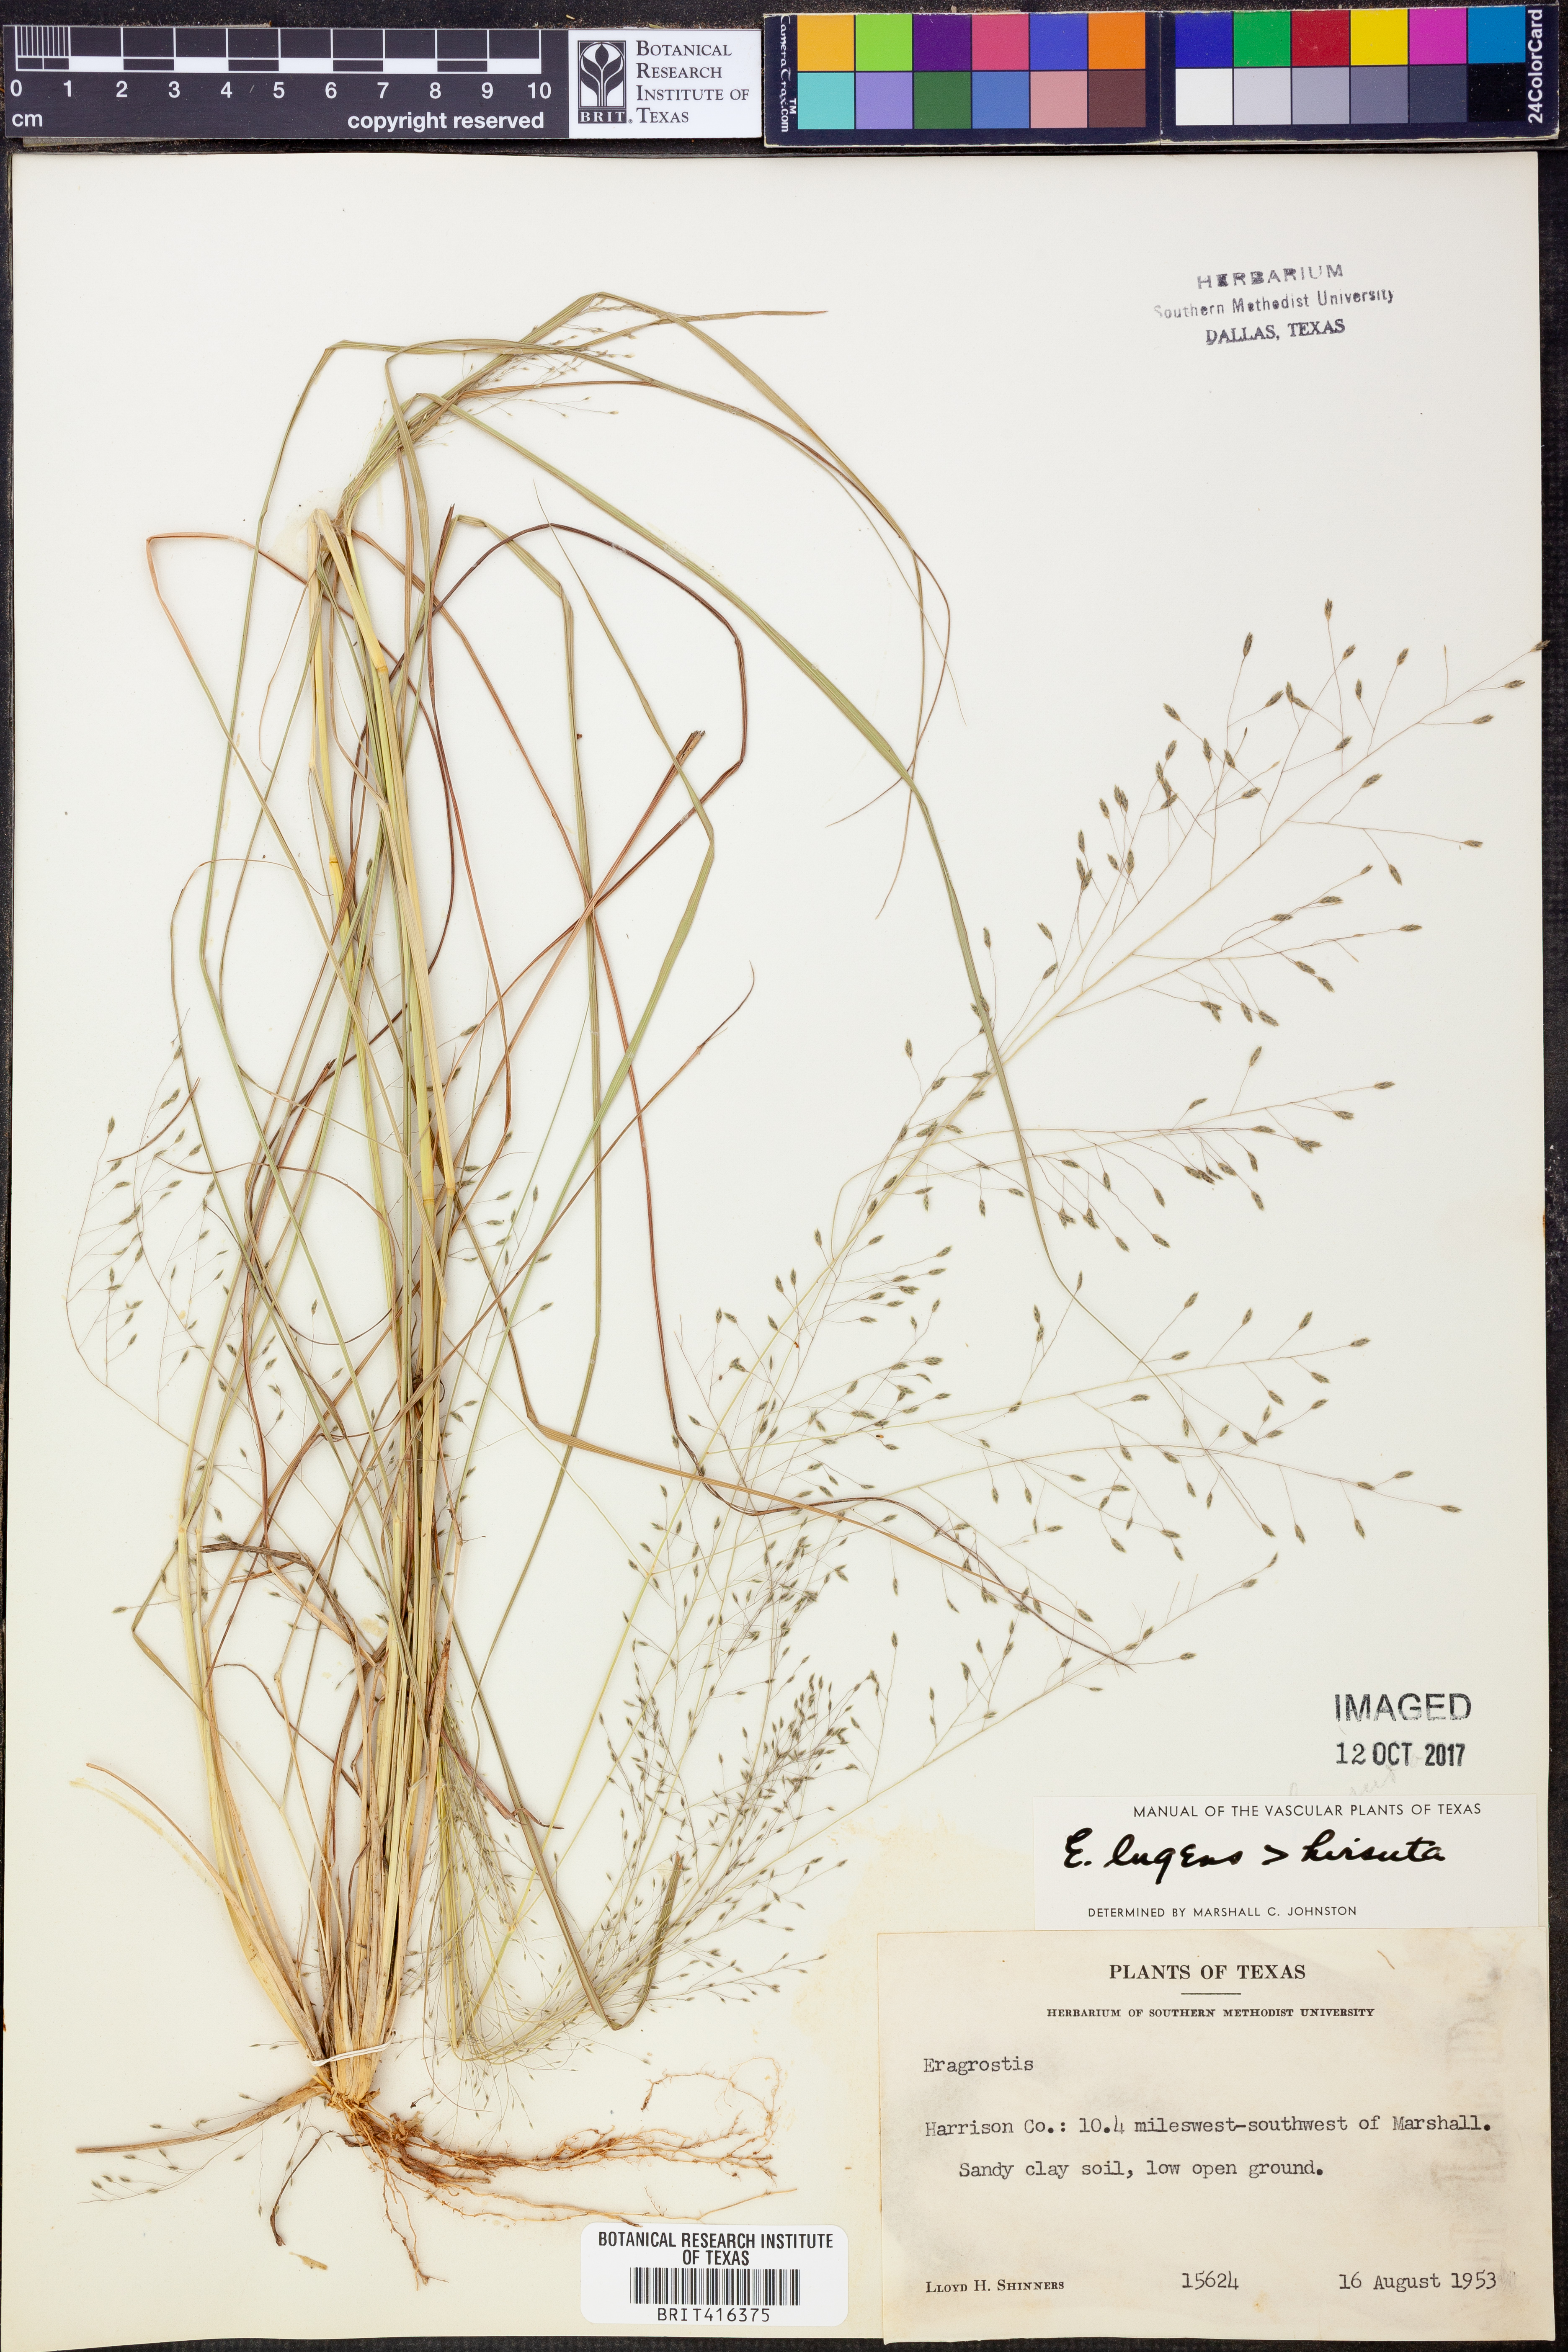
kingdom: Plantae
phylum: Tracheophyta
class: Liliopsida
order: Poales
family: Poaceae
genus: Eragrostis
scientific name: Eragrostis capillaris
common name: Hair-like lovegrass
